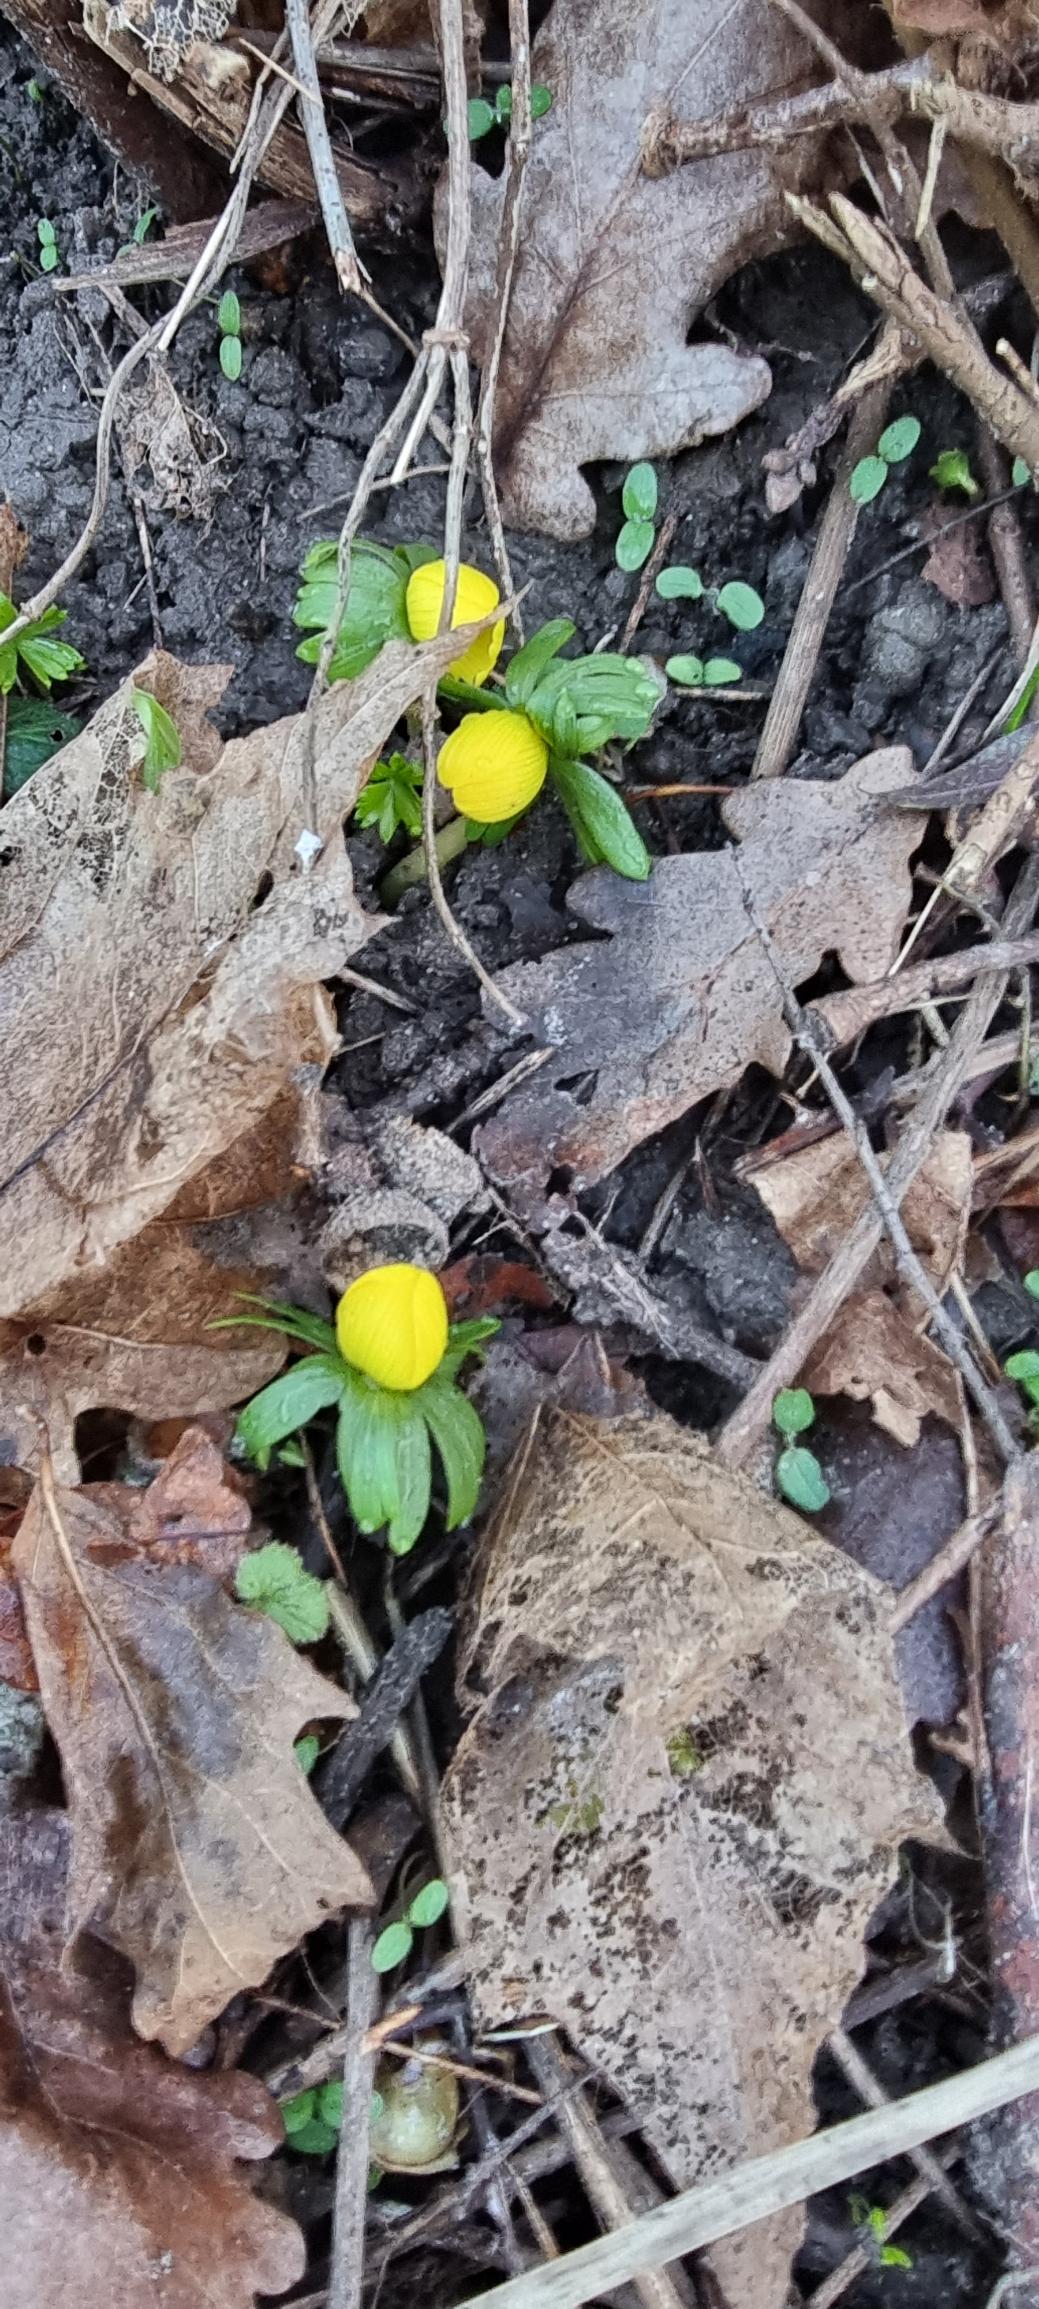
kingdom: Plantae
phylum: Tracheophyta
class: Magnoliopsida
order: Ranunculales
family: Ranunculaceae
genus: Eranthis
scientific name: Eranthis hyemalis
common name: Erantis
